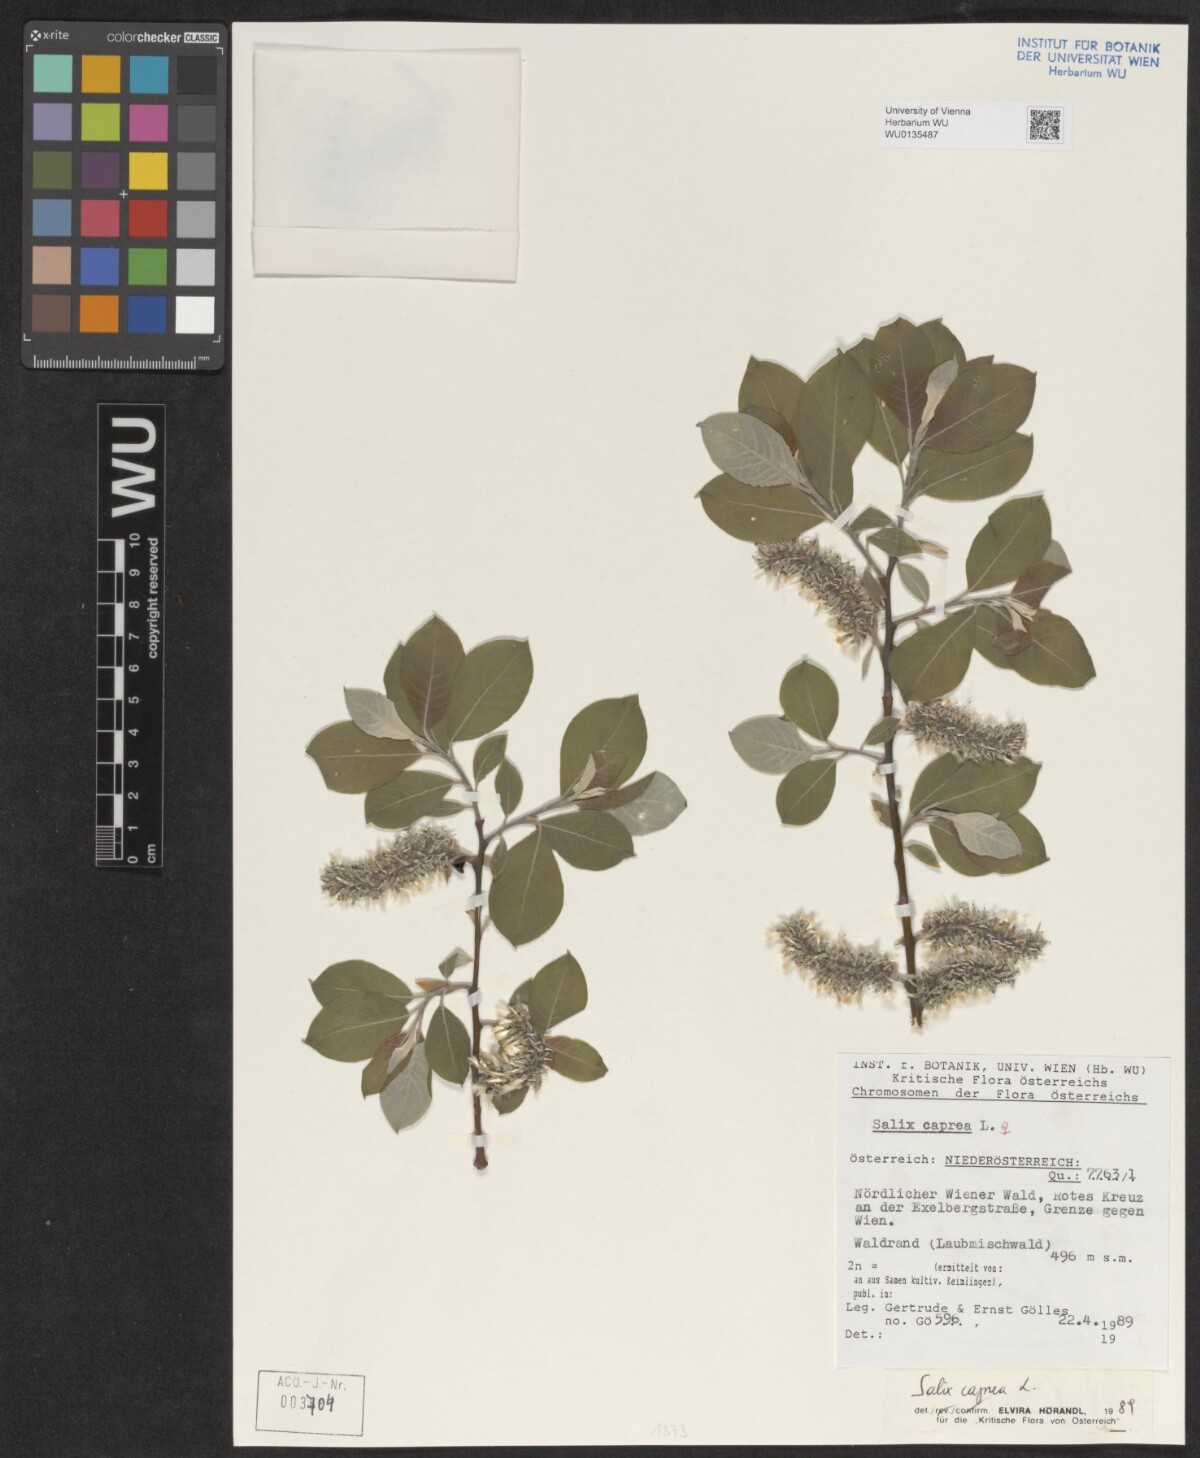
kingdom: Plantae
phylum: Tracheophyta
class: Magnoliopsida
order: Malpighiales
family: Salicaceae
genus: Salix
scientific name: Salix caprea
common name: Goat willow
